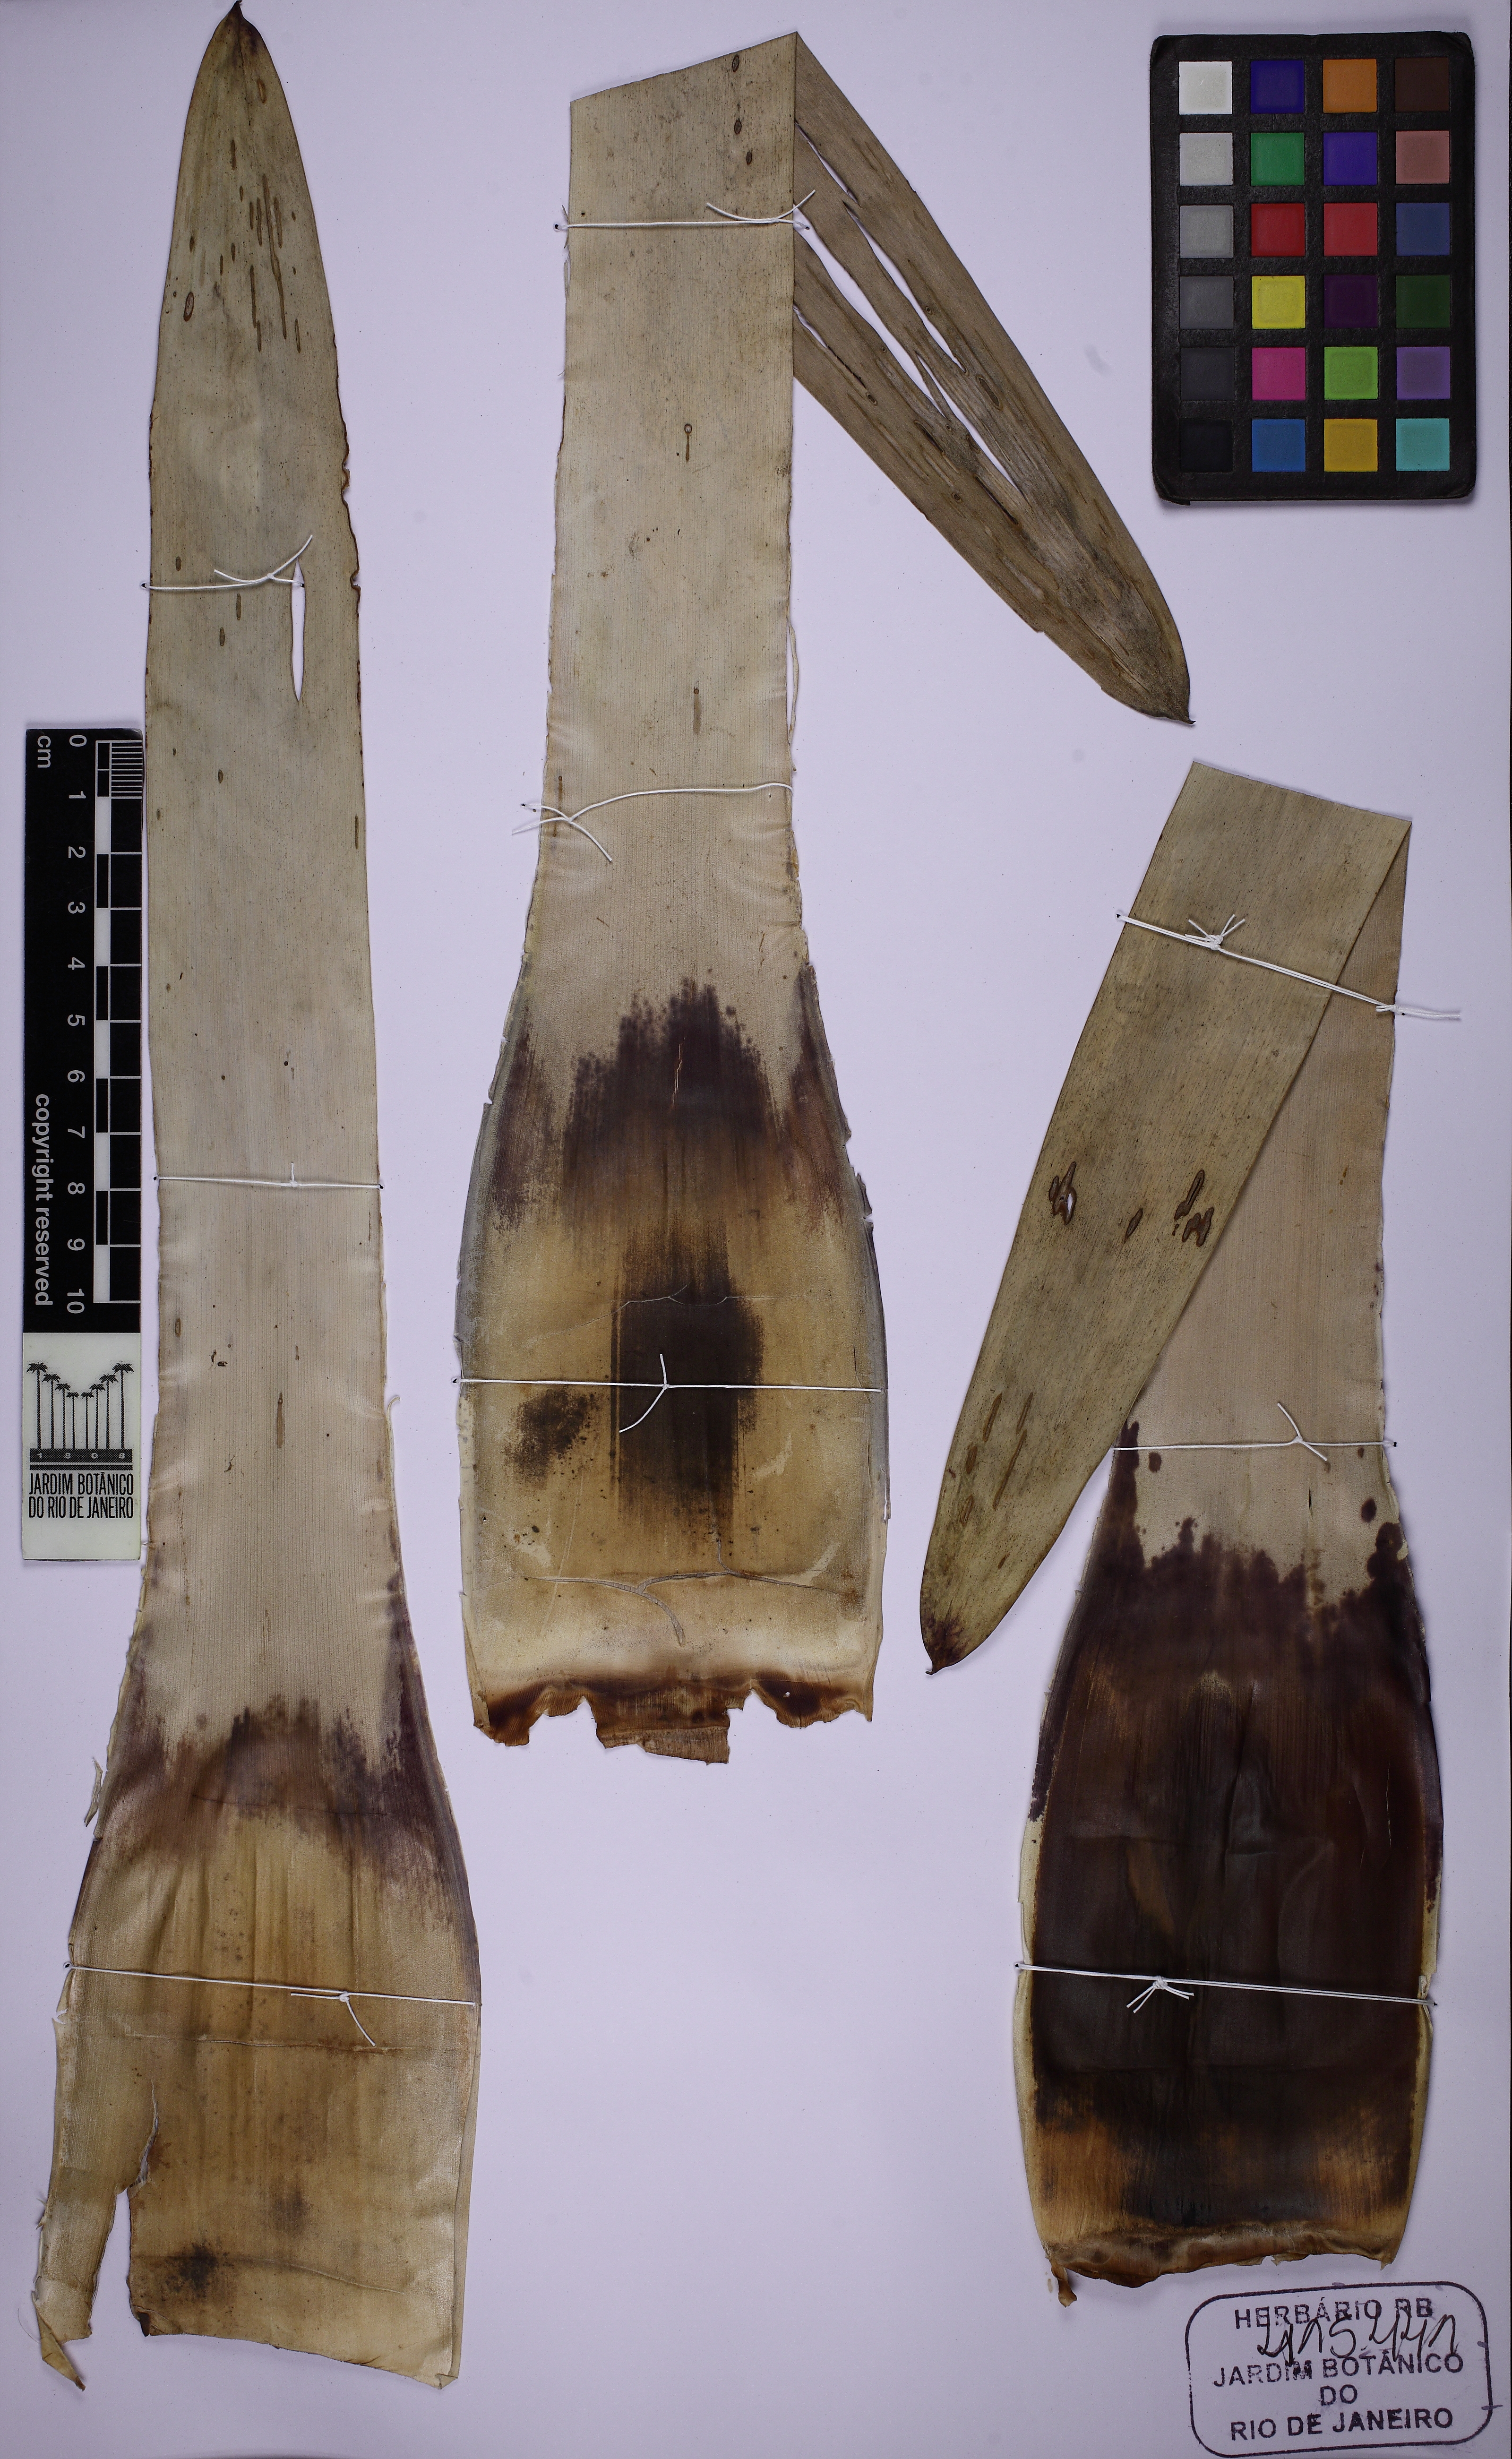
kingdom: Plantae
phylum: Tracheophyta
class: Liliopsida
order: Poales
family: Bromeliaceae
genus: Vriesea
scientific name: Vriesea
